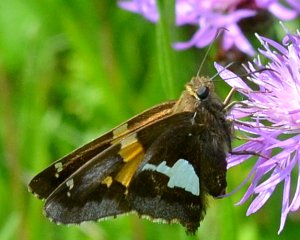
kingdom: Animalia
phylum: Arthropoda
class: Insecta
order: Lepidoptera
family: Hesperiidae
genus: Epargyreus
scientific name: Epargyreus clarus
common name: Silver-spotted Skipper
